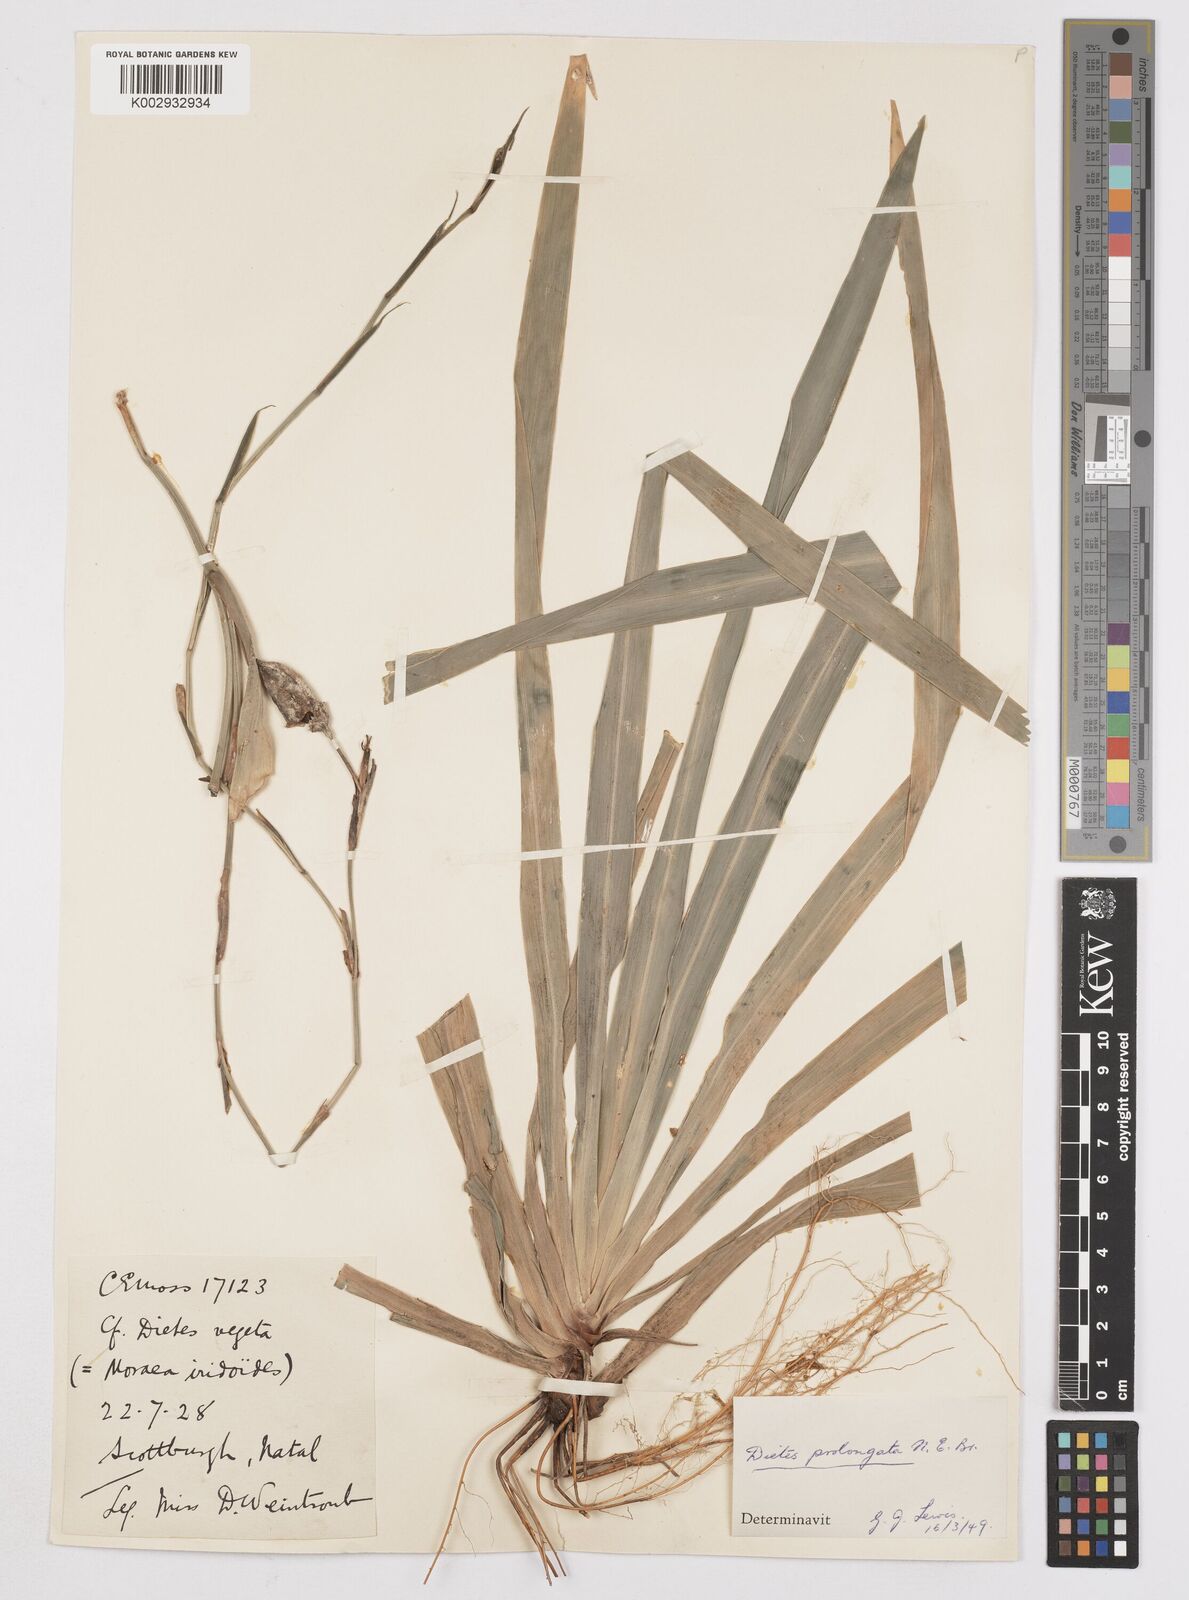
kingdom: Plantae
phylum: Tracheophyta
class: Liliopsida
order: Asparagales
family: Iridaceae
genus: Dietes
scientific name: Dietes iridioides
